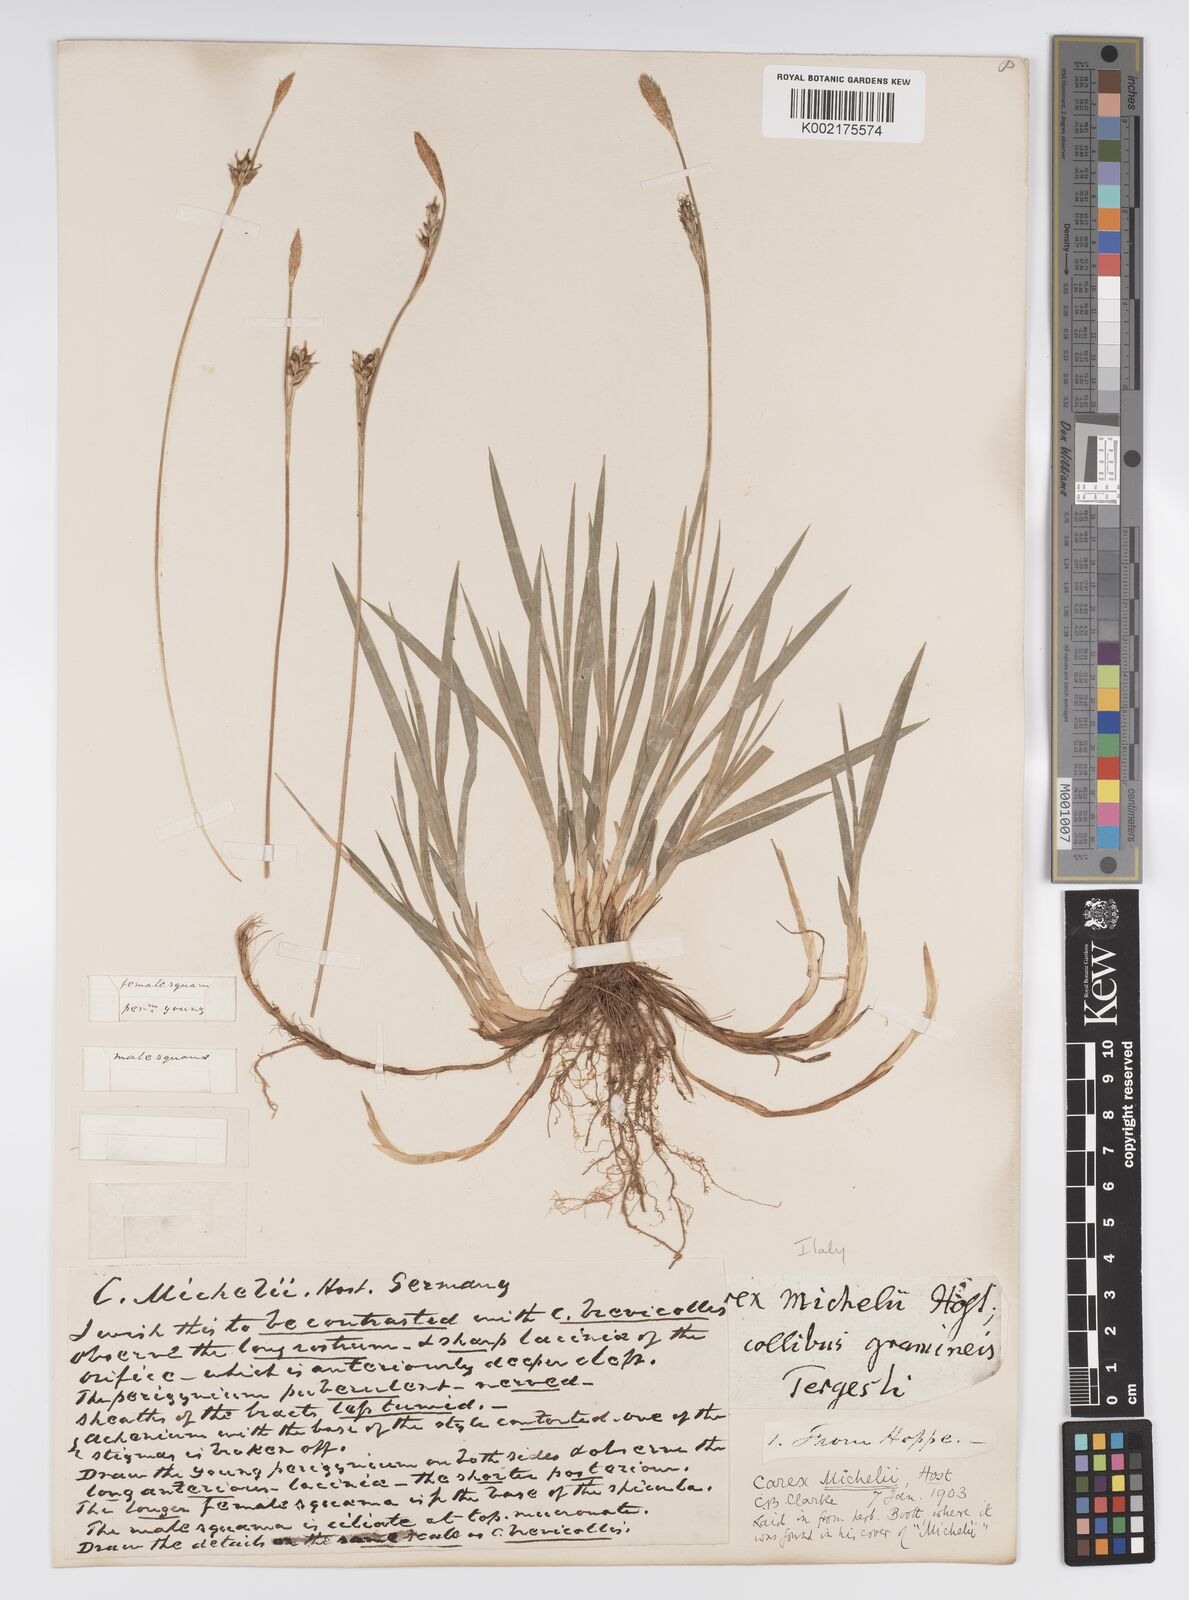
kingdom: Plantae
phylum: Tracheophyta
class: Liliopsida
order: Poales
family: Cyperaceae
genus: Carex
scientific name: Carex michelii
